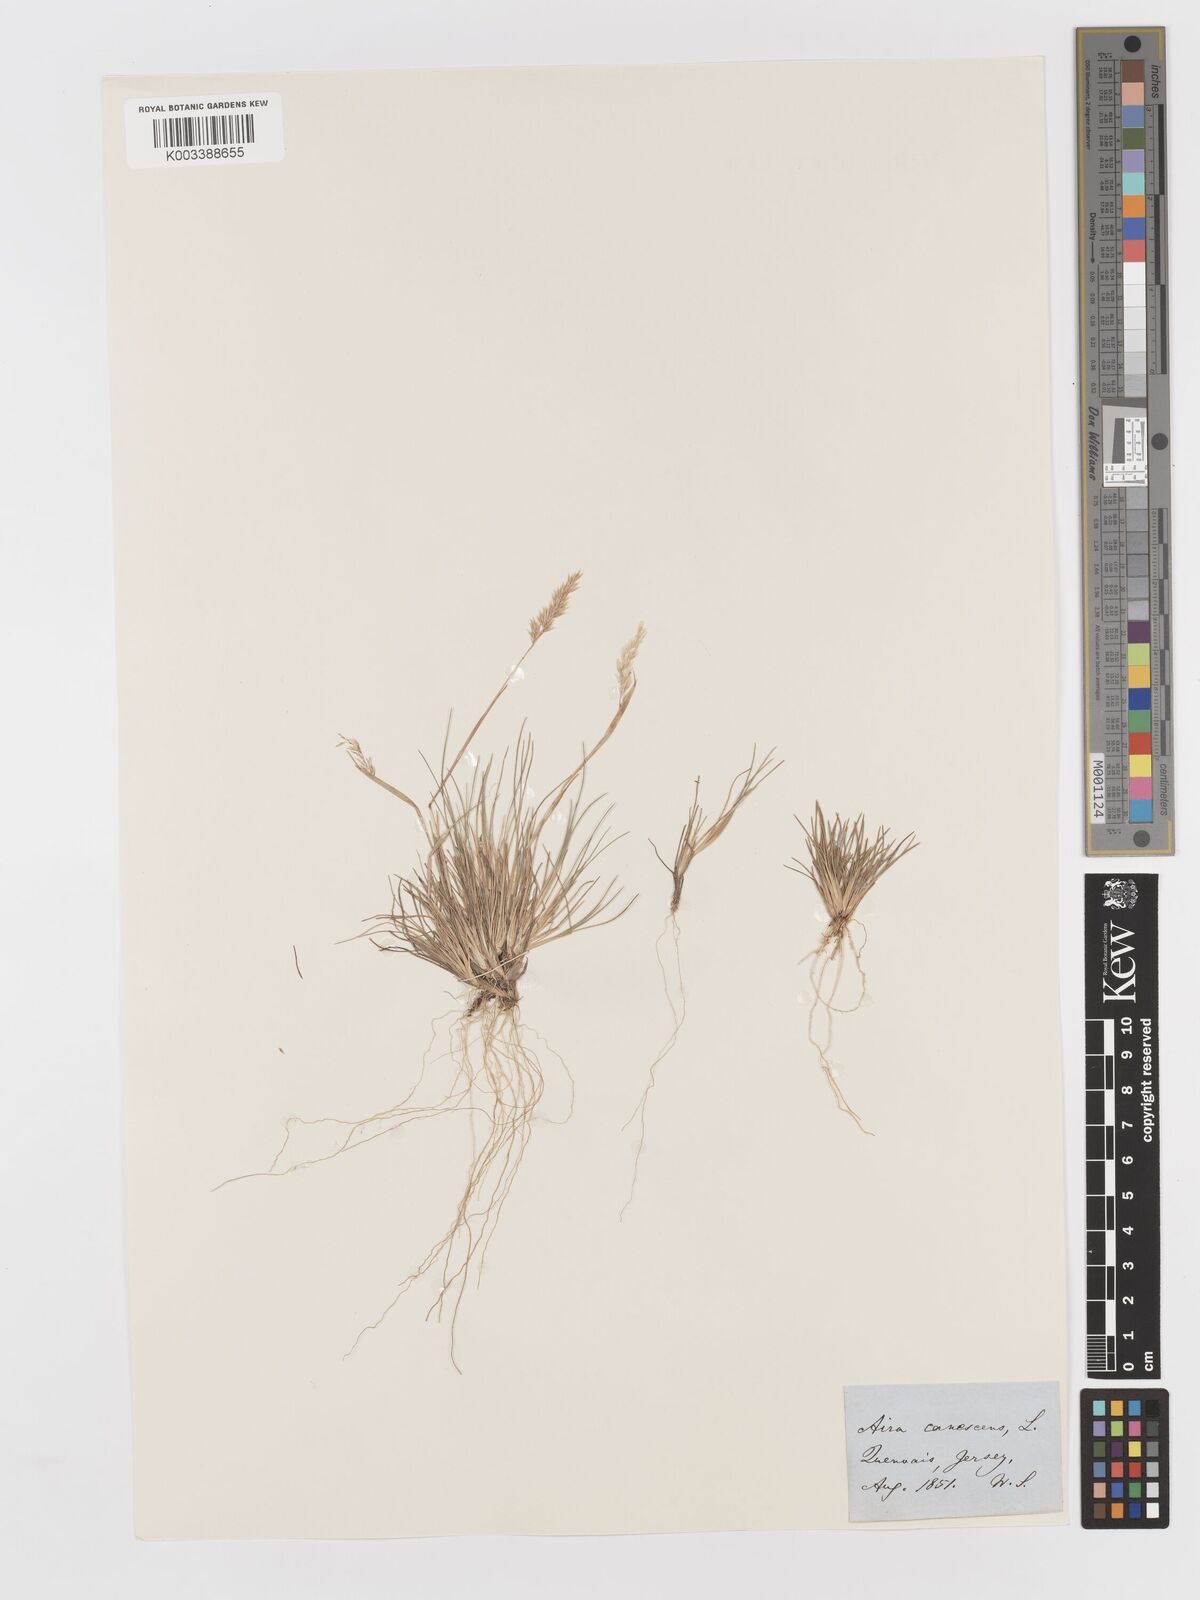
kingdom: Plantae
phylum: Tracheophyta
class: Liliopsida
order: Poales
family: Poaceae
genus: Corynephorus
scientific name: Corynephorus canescens
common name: Grey hair-grass
